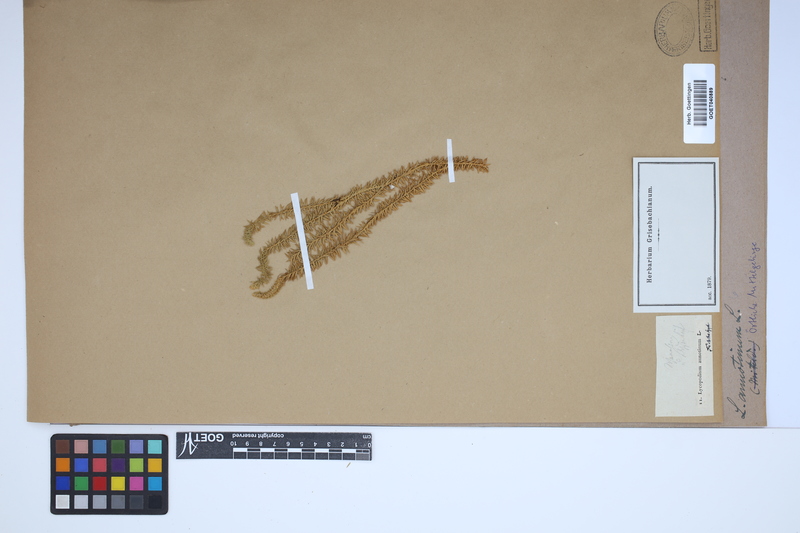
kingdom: Plantae
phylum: Tracheophyta
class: Lycopodiopsida
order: Lycopodiales
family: Lycopodiaceae
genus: Spinulum
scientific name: Spinulum annotinum
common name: Interrupted club-moss
